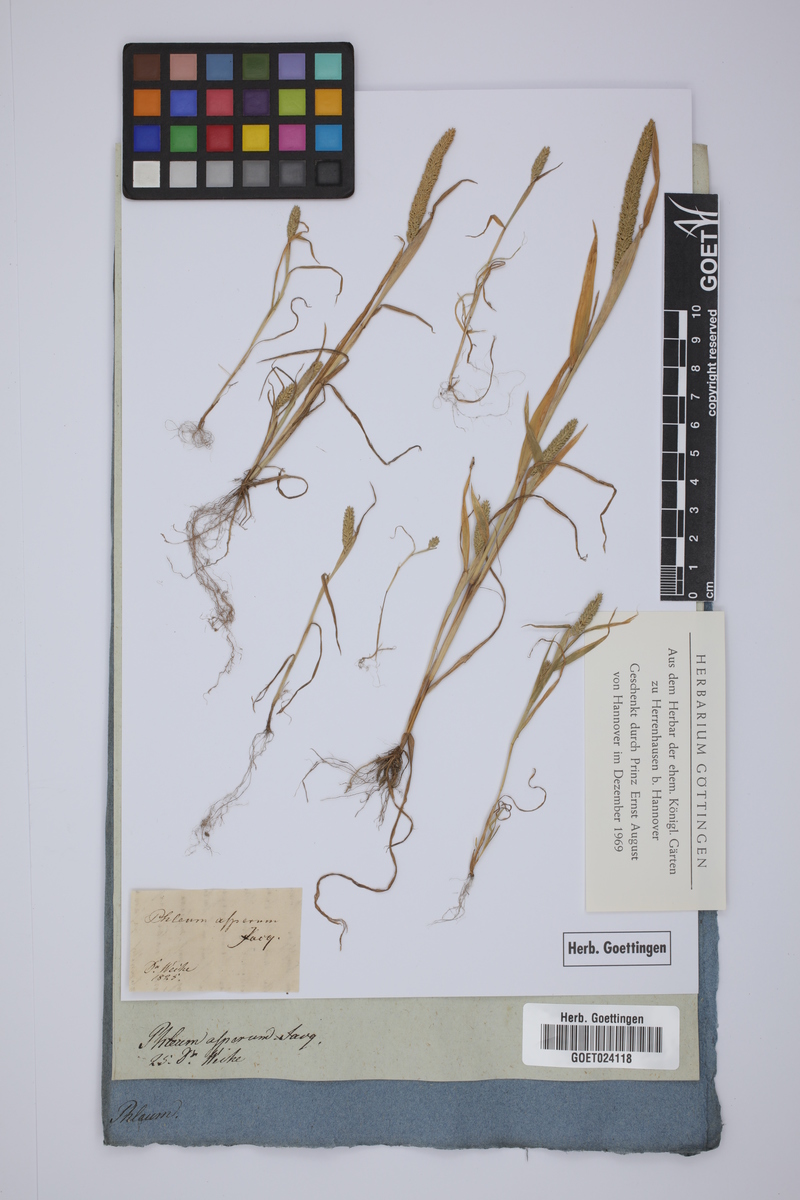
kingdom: Plantae
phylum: Tracheophyta
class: Liliopsida
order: Poales
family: Poaceae
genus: Phleum
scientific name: Phleum paniculatum
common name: British timothy
